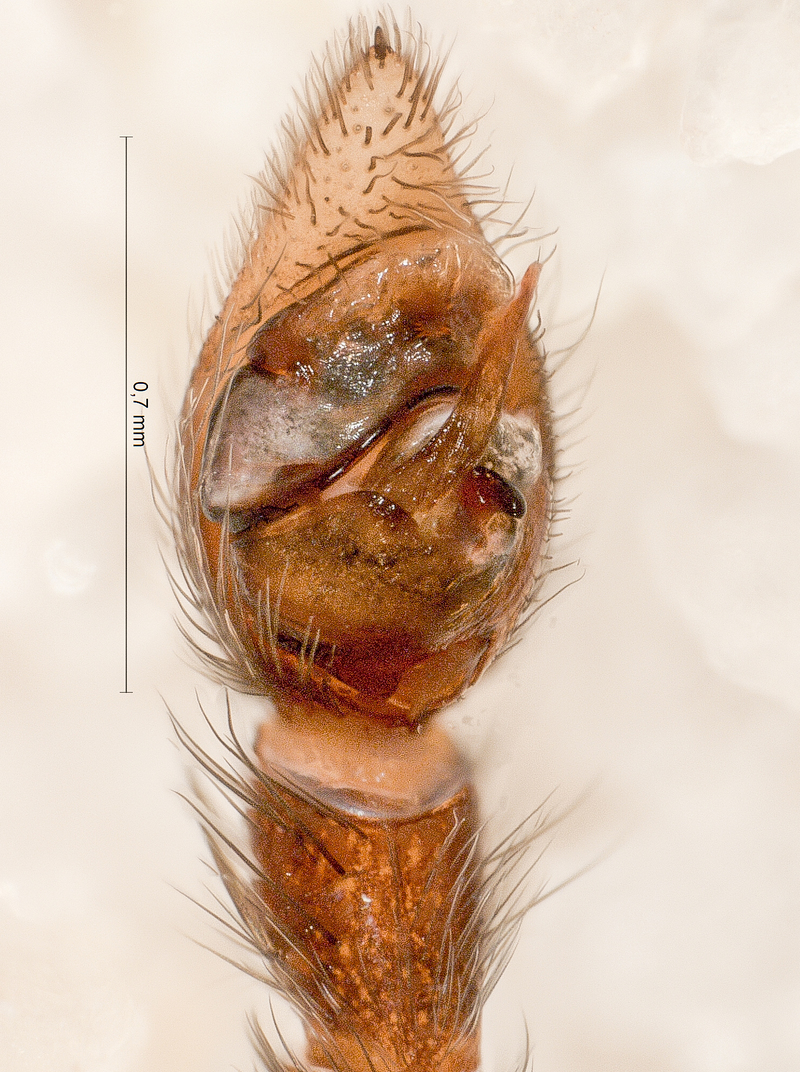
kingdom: Animalia
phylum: Arthropoda
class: Arachnida
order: Araneae
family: Lycosidae
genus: Pardosa
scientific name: Pardosa pullata
